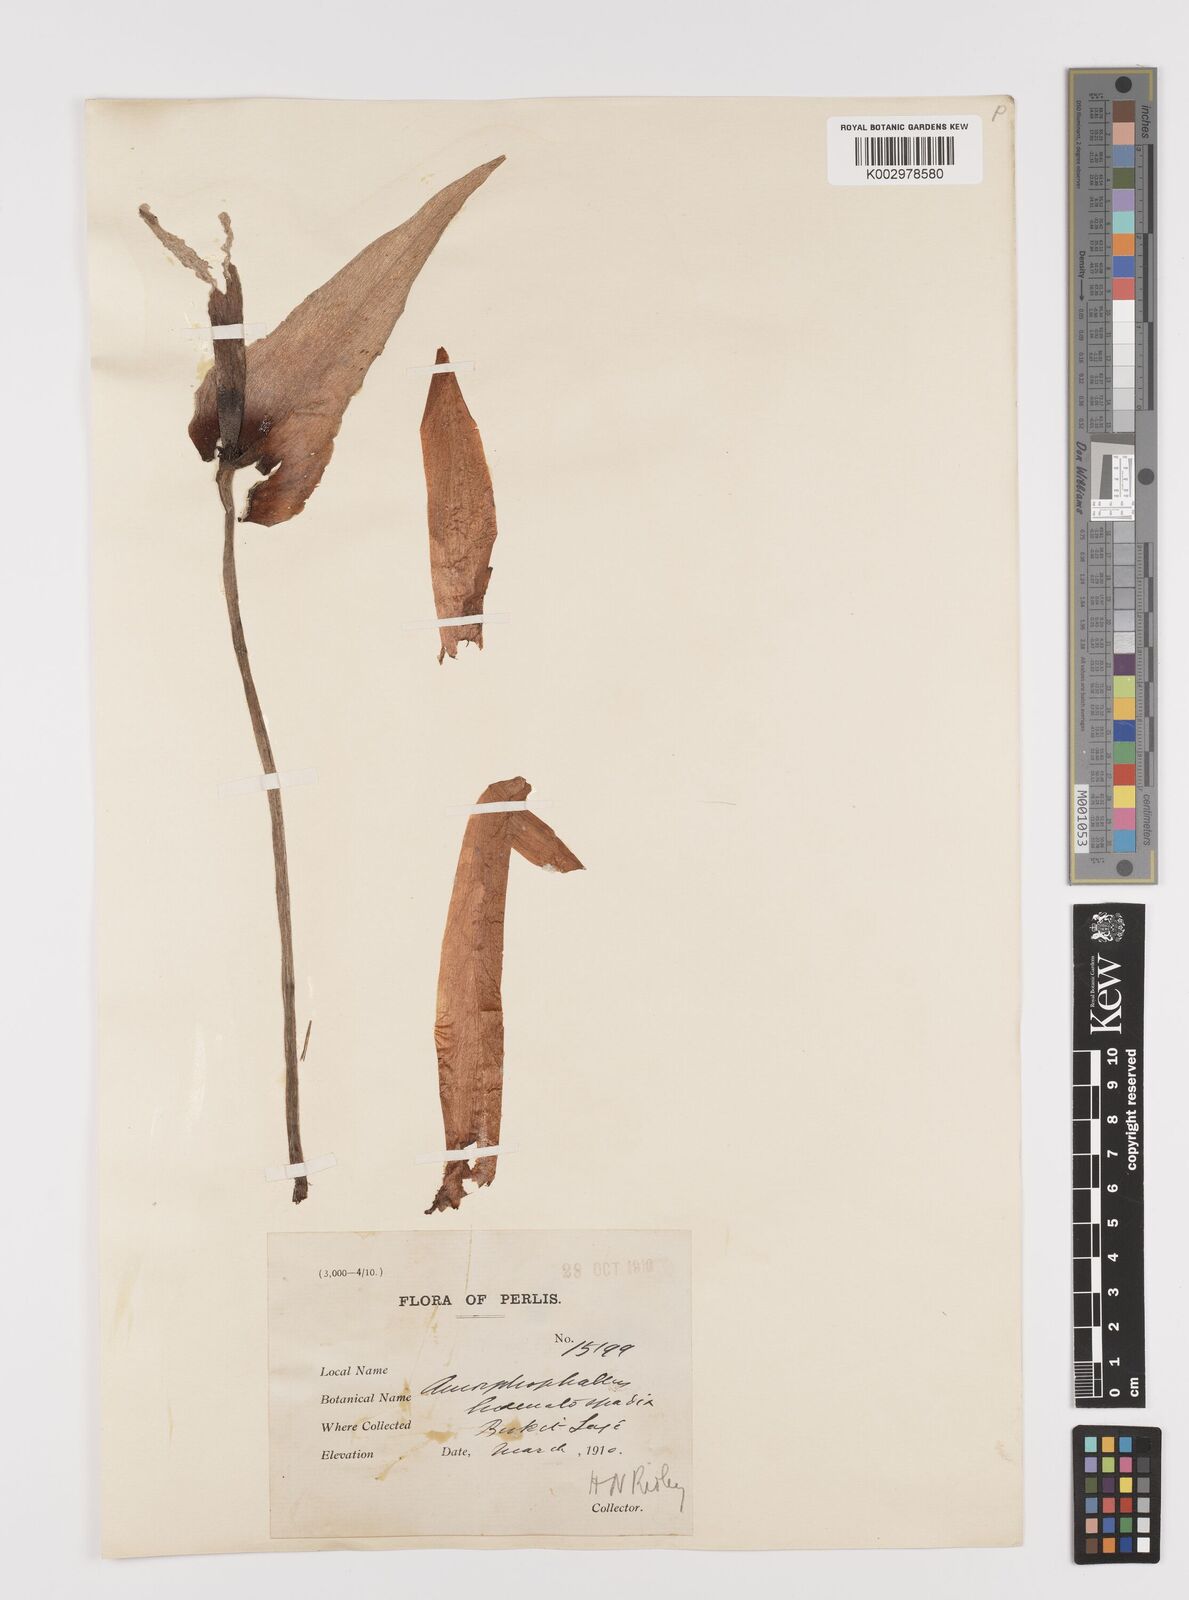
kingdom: Plantae
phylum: Tracheophyta
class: Liliopsida
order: Alismatales
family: Araceae
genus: Amorphophallus
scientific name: Amorphophallus haematospadix
